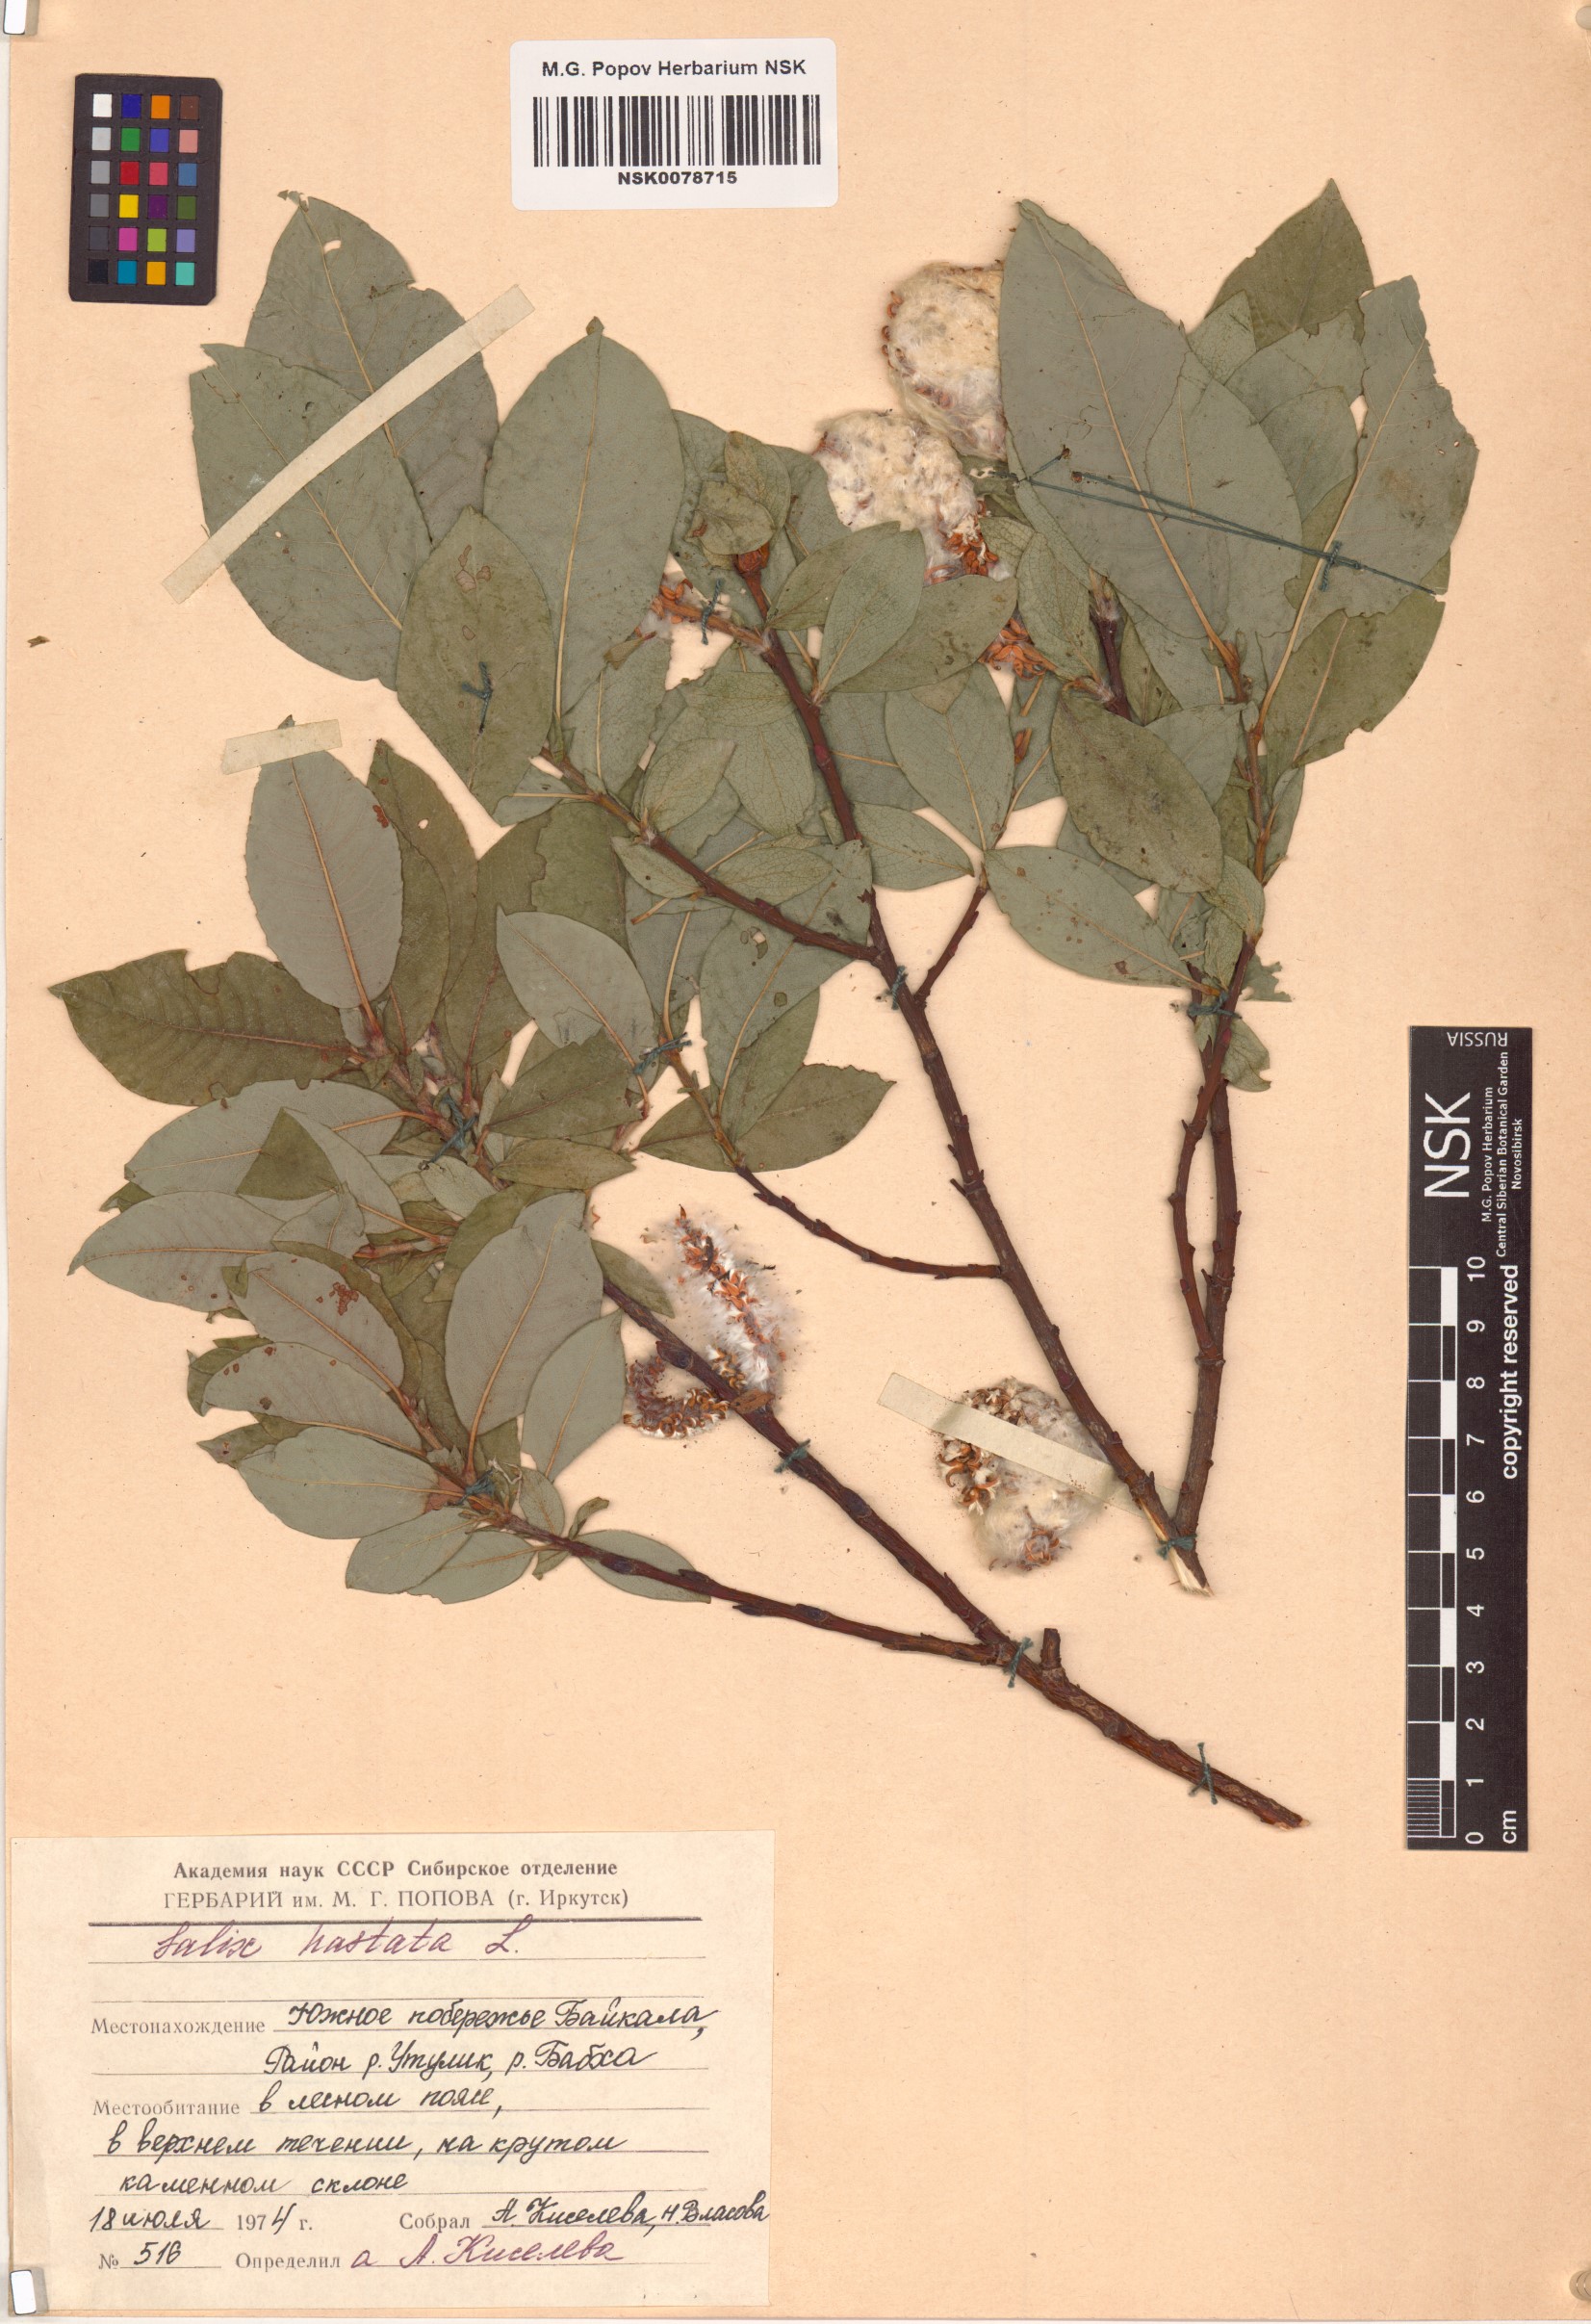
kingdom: Plantae
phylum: Tracheophyta
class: Magnoliopsida
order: Malpighiales
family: Salicaceae
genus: Salix
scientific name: Salix hastata
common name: Halberd willow
